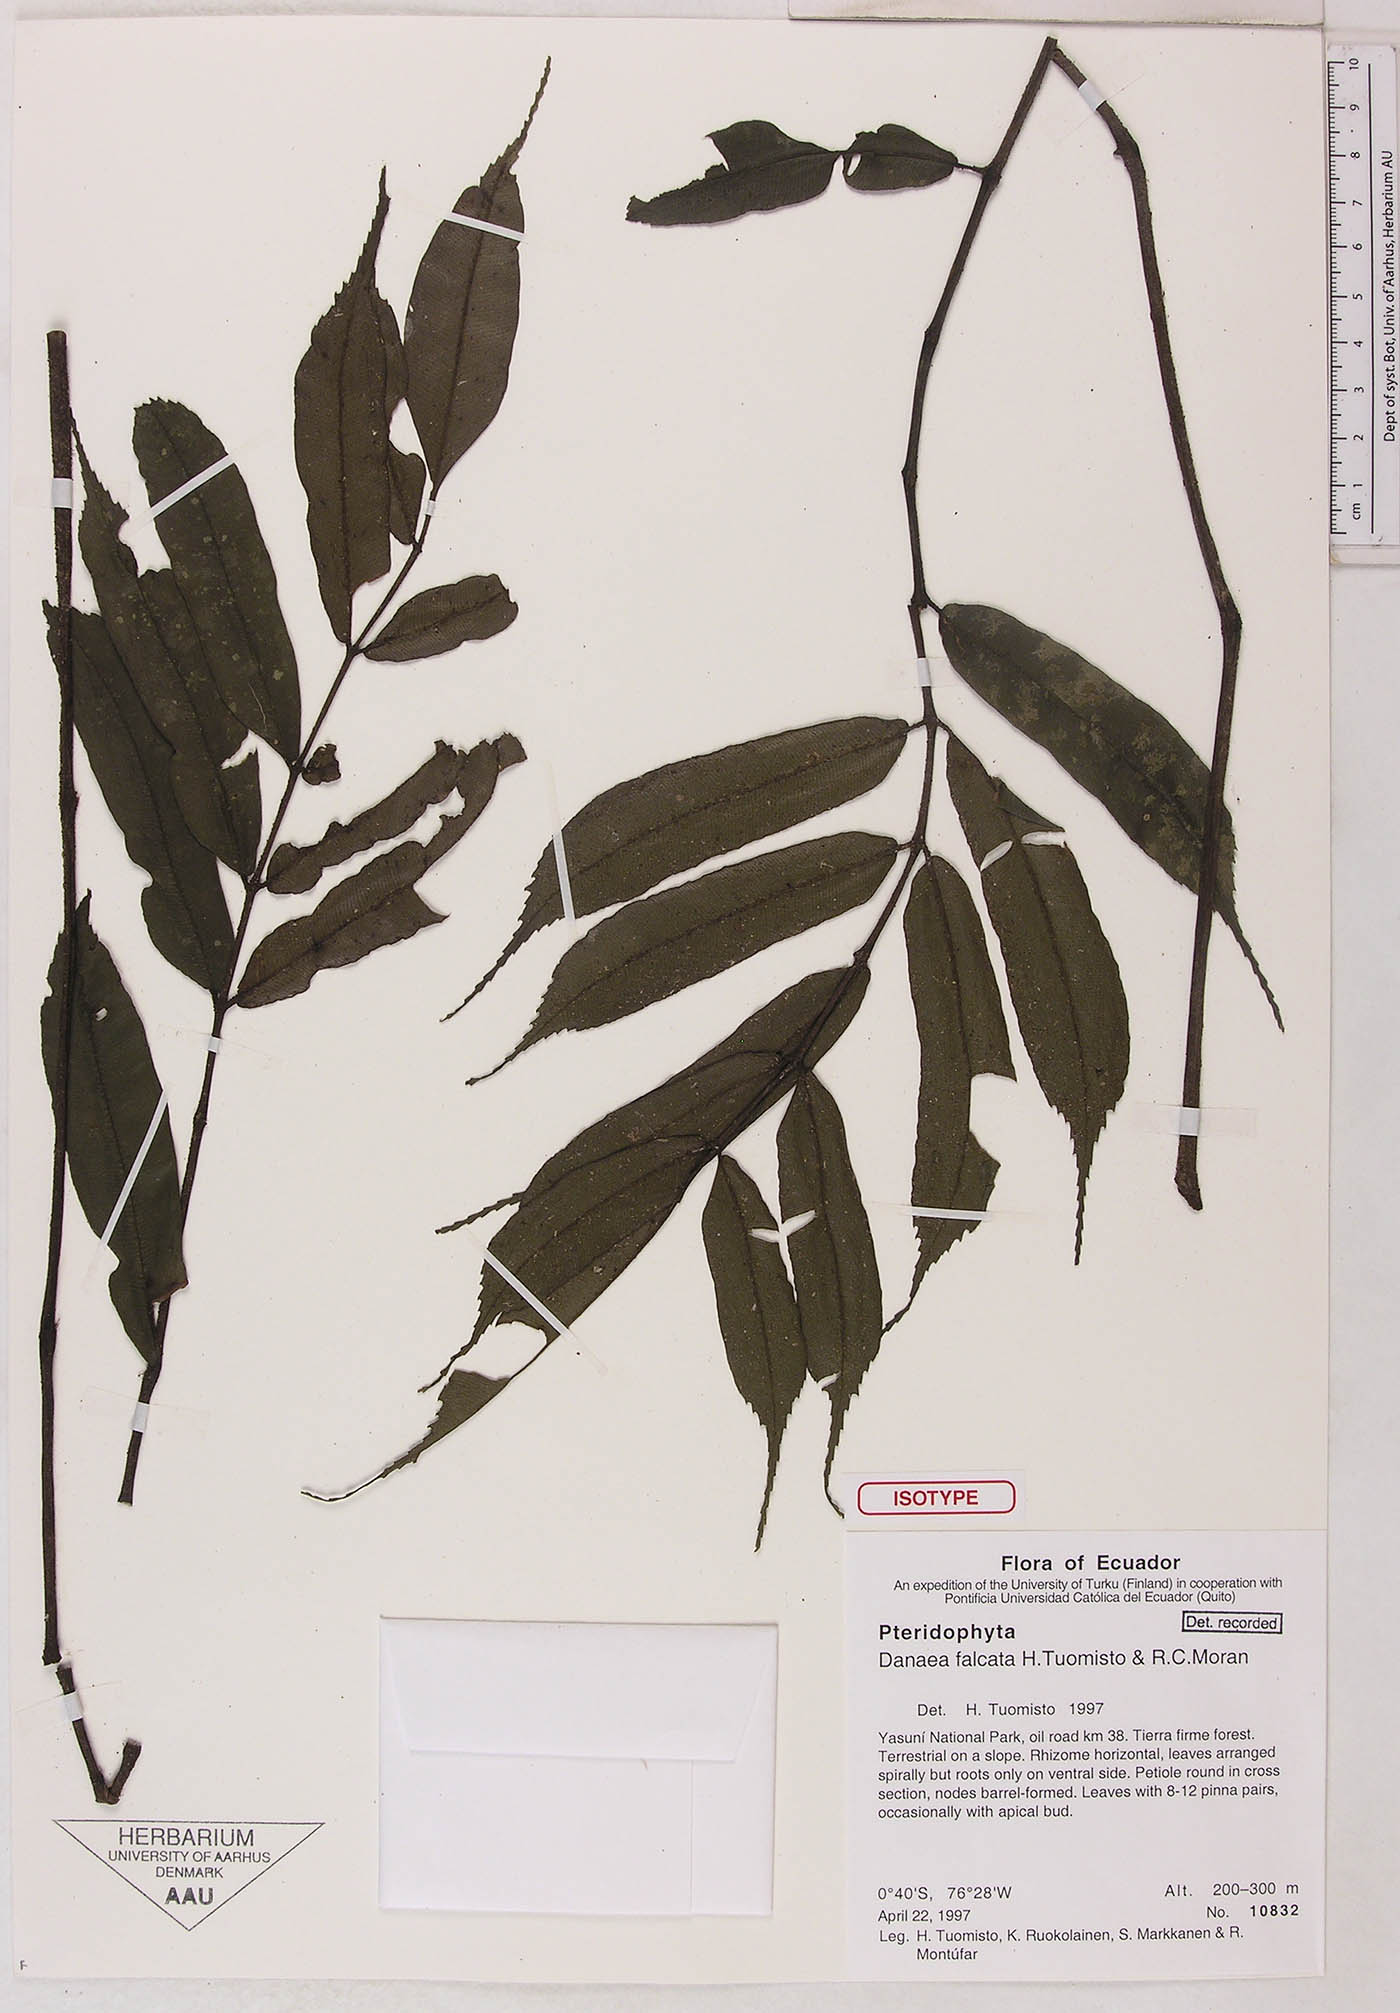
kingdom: Plantae
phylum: Tracheophyta
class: Polypodiopsida
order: Marattiales
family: Marattiaceae
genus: Danaea
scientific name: Danaea falcata
